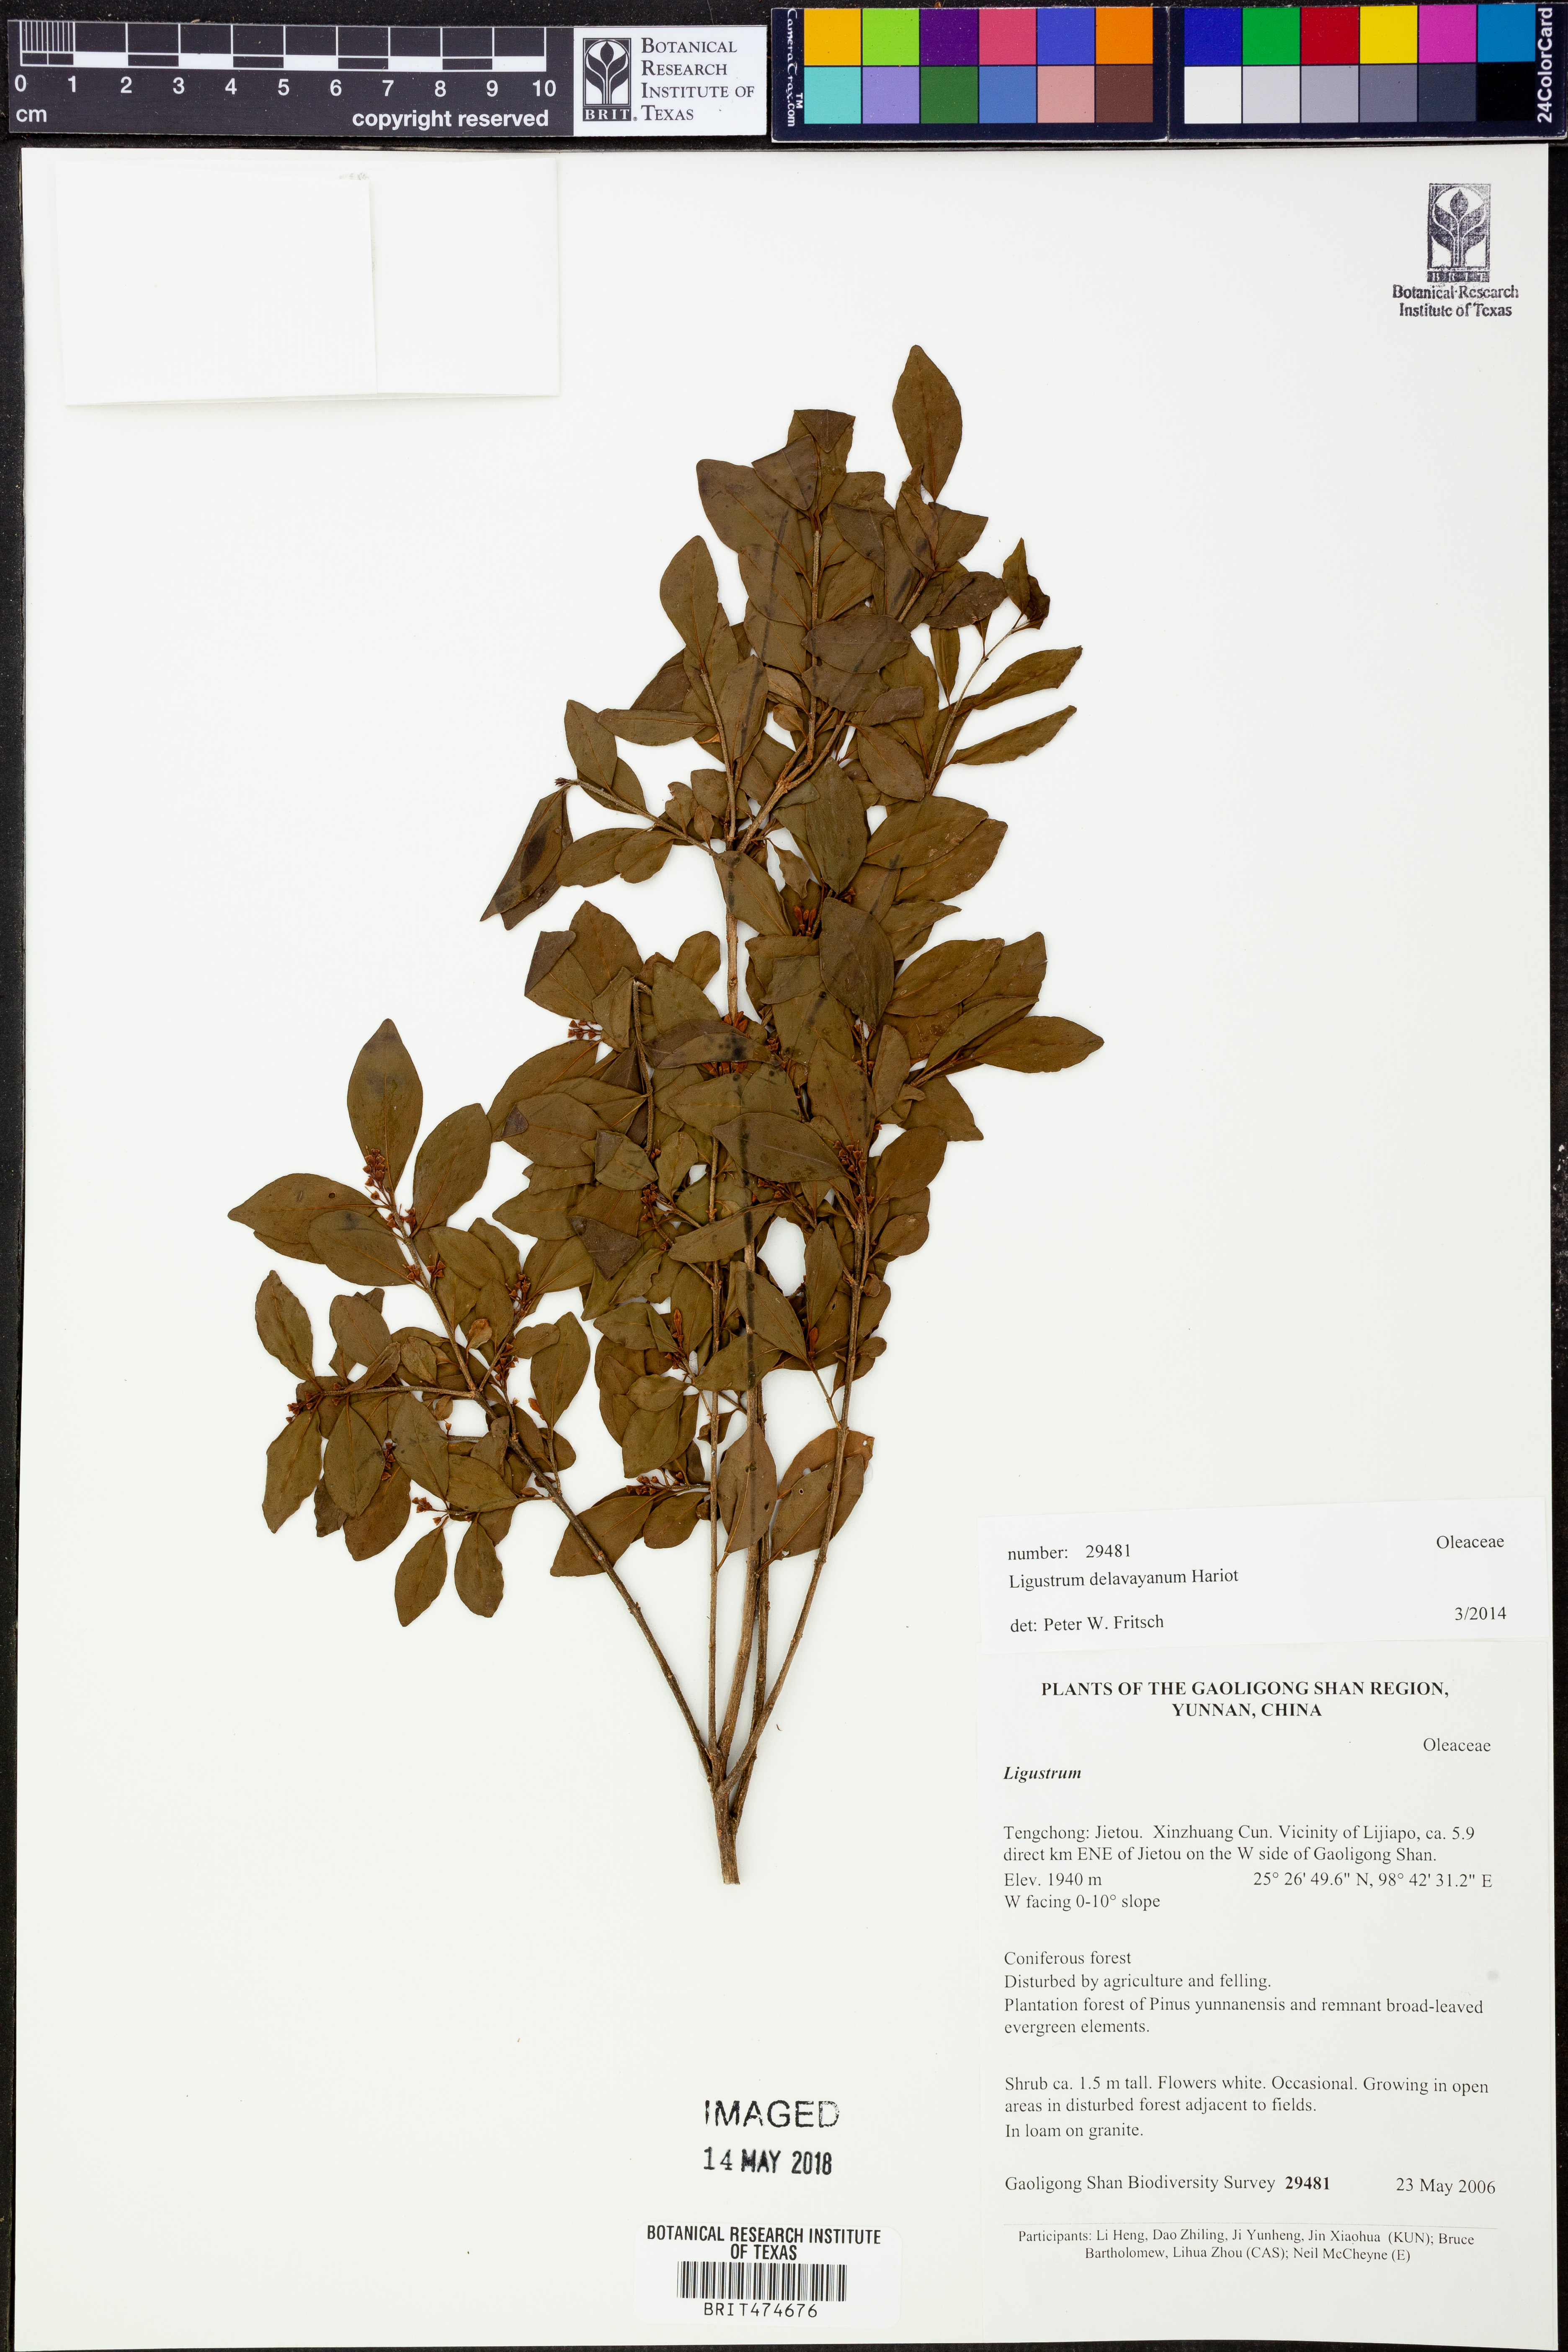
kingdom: Plantae
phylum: Tracheophyta
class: Magnoliopsida
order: Lamiales
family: Oleaceae
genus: Ligustrum
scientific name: Ligustrum delavayanum
